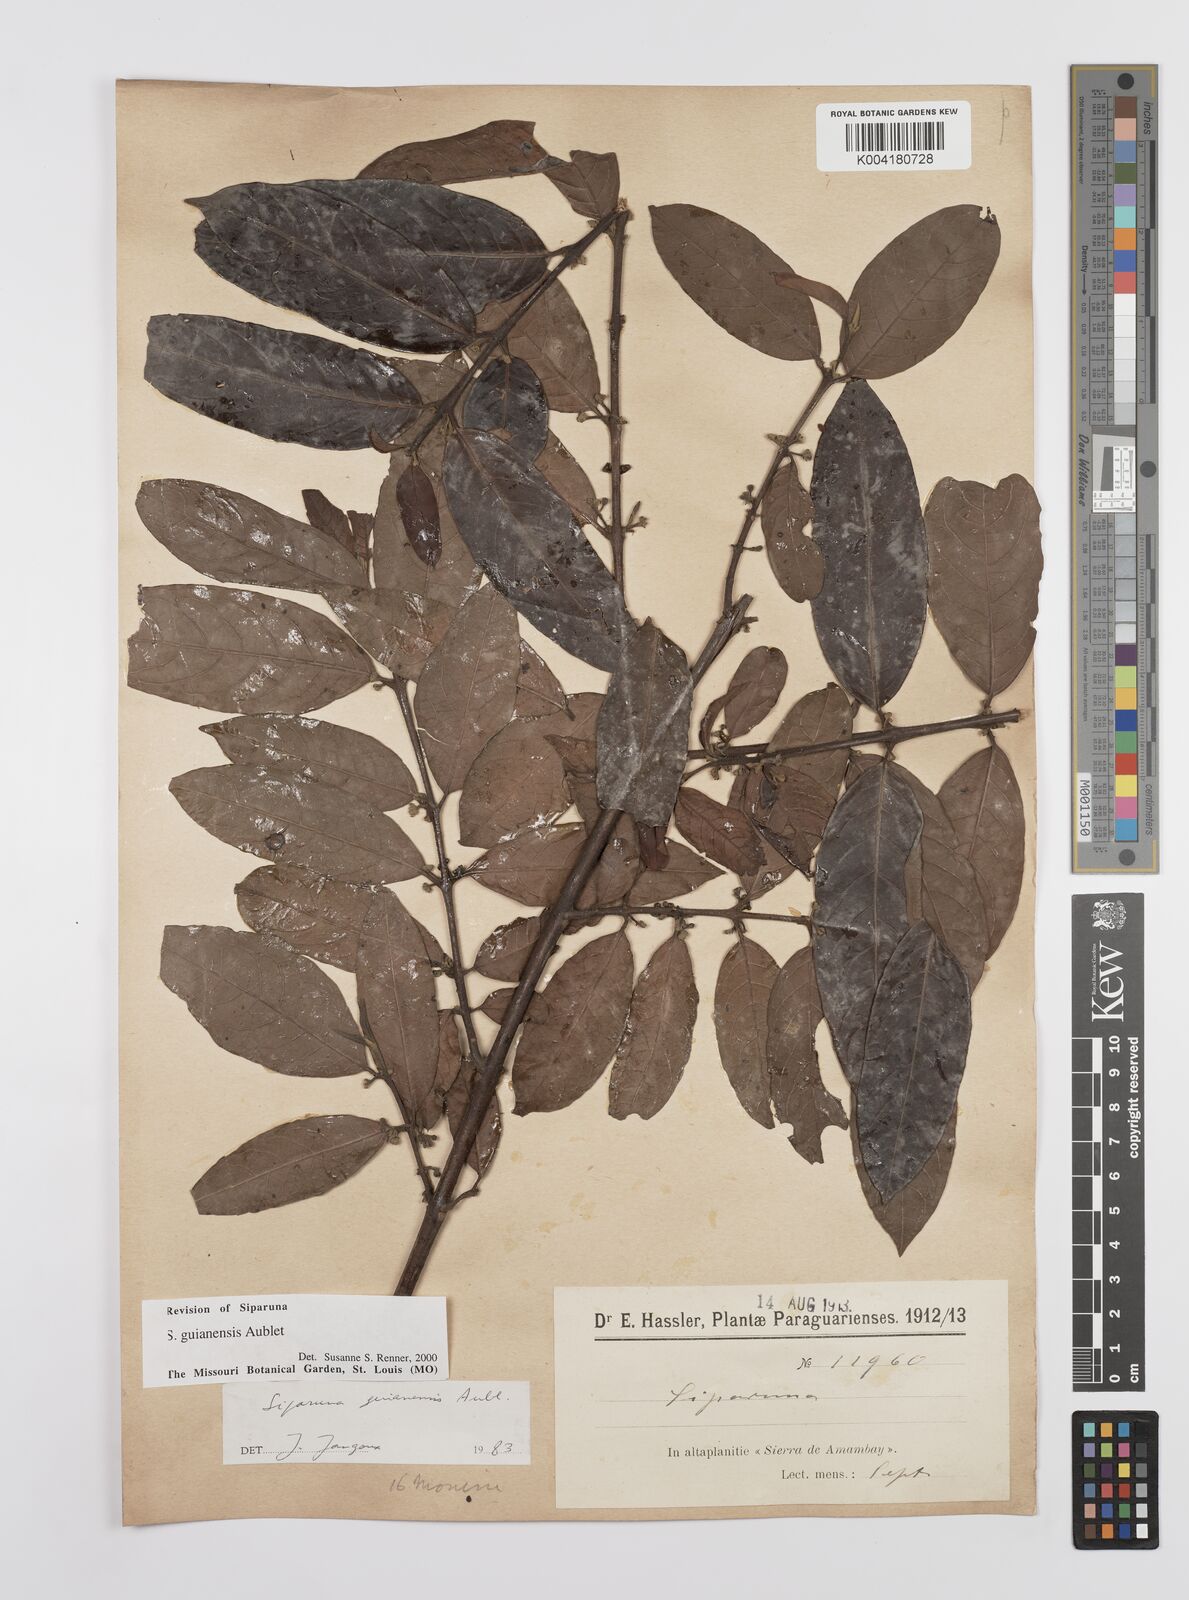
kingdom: Plantae
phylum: Tracheophyta
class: Magnoliopsida
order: Laurales
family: Siparunaceae
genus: Siparuna
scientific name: Siparuna guianensis
